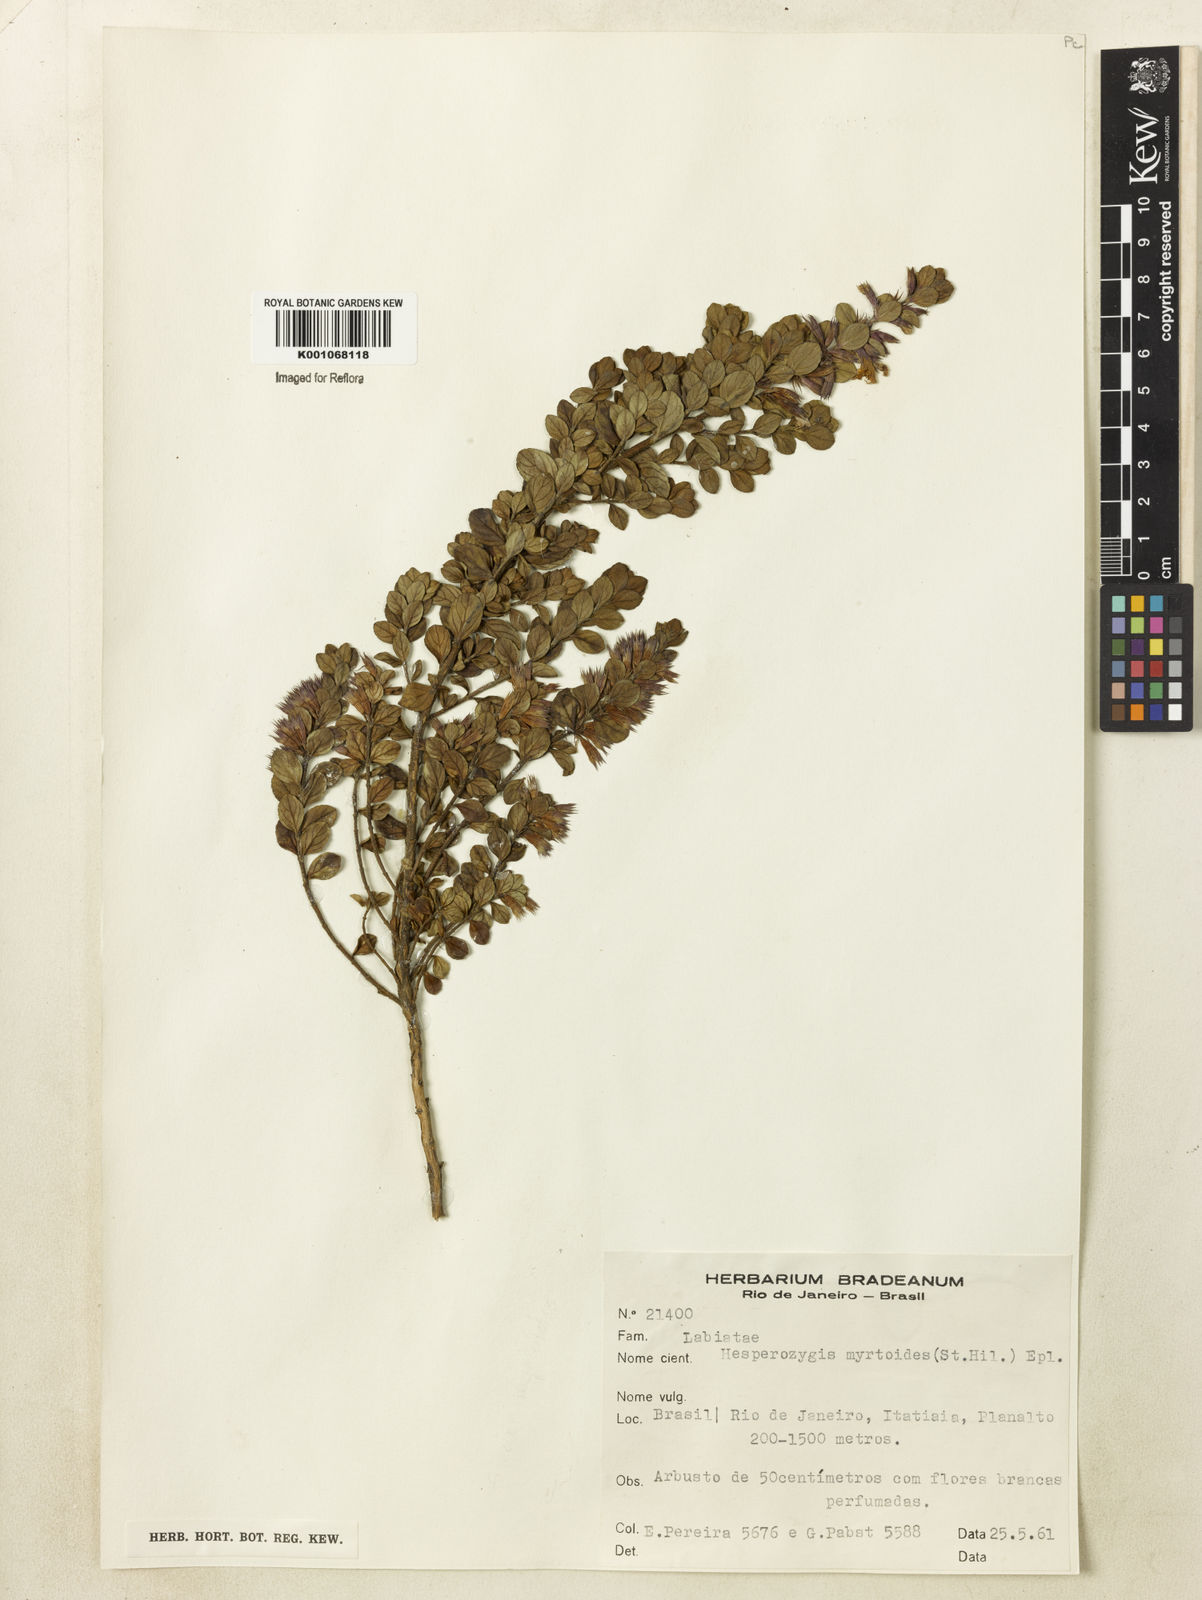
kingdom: Plantae
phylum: Tracheophyta
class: Magnoliopsida
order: Lamiales
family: Lamiaceae
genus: Hesperozygis
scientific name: Hesperozygis myrtoides
